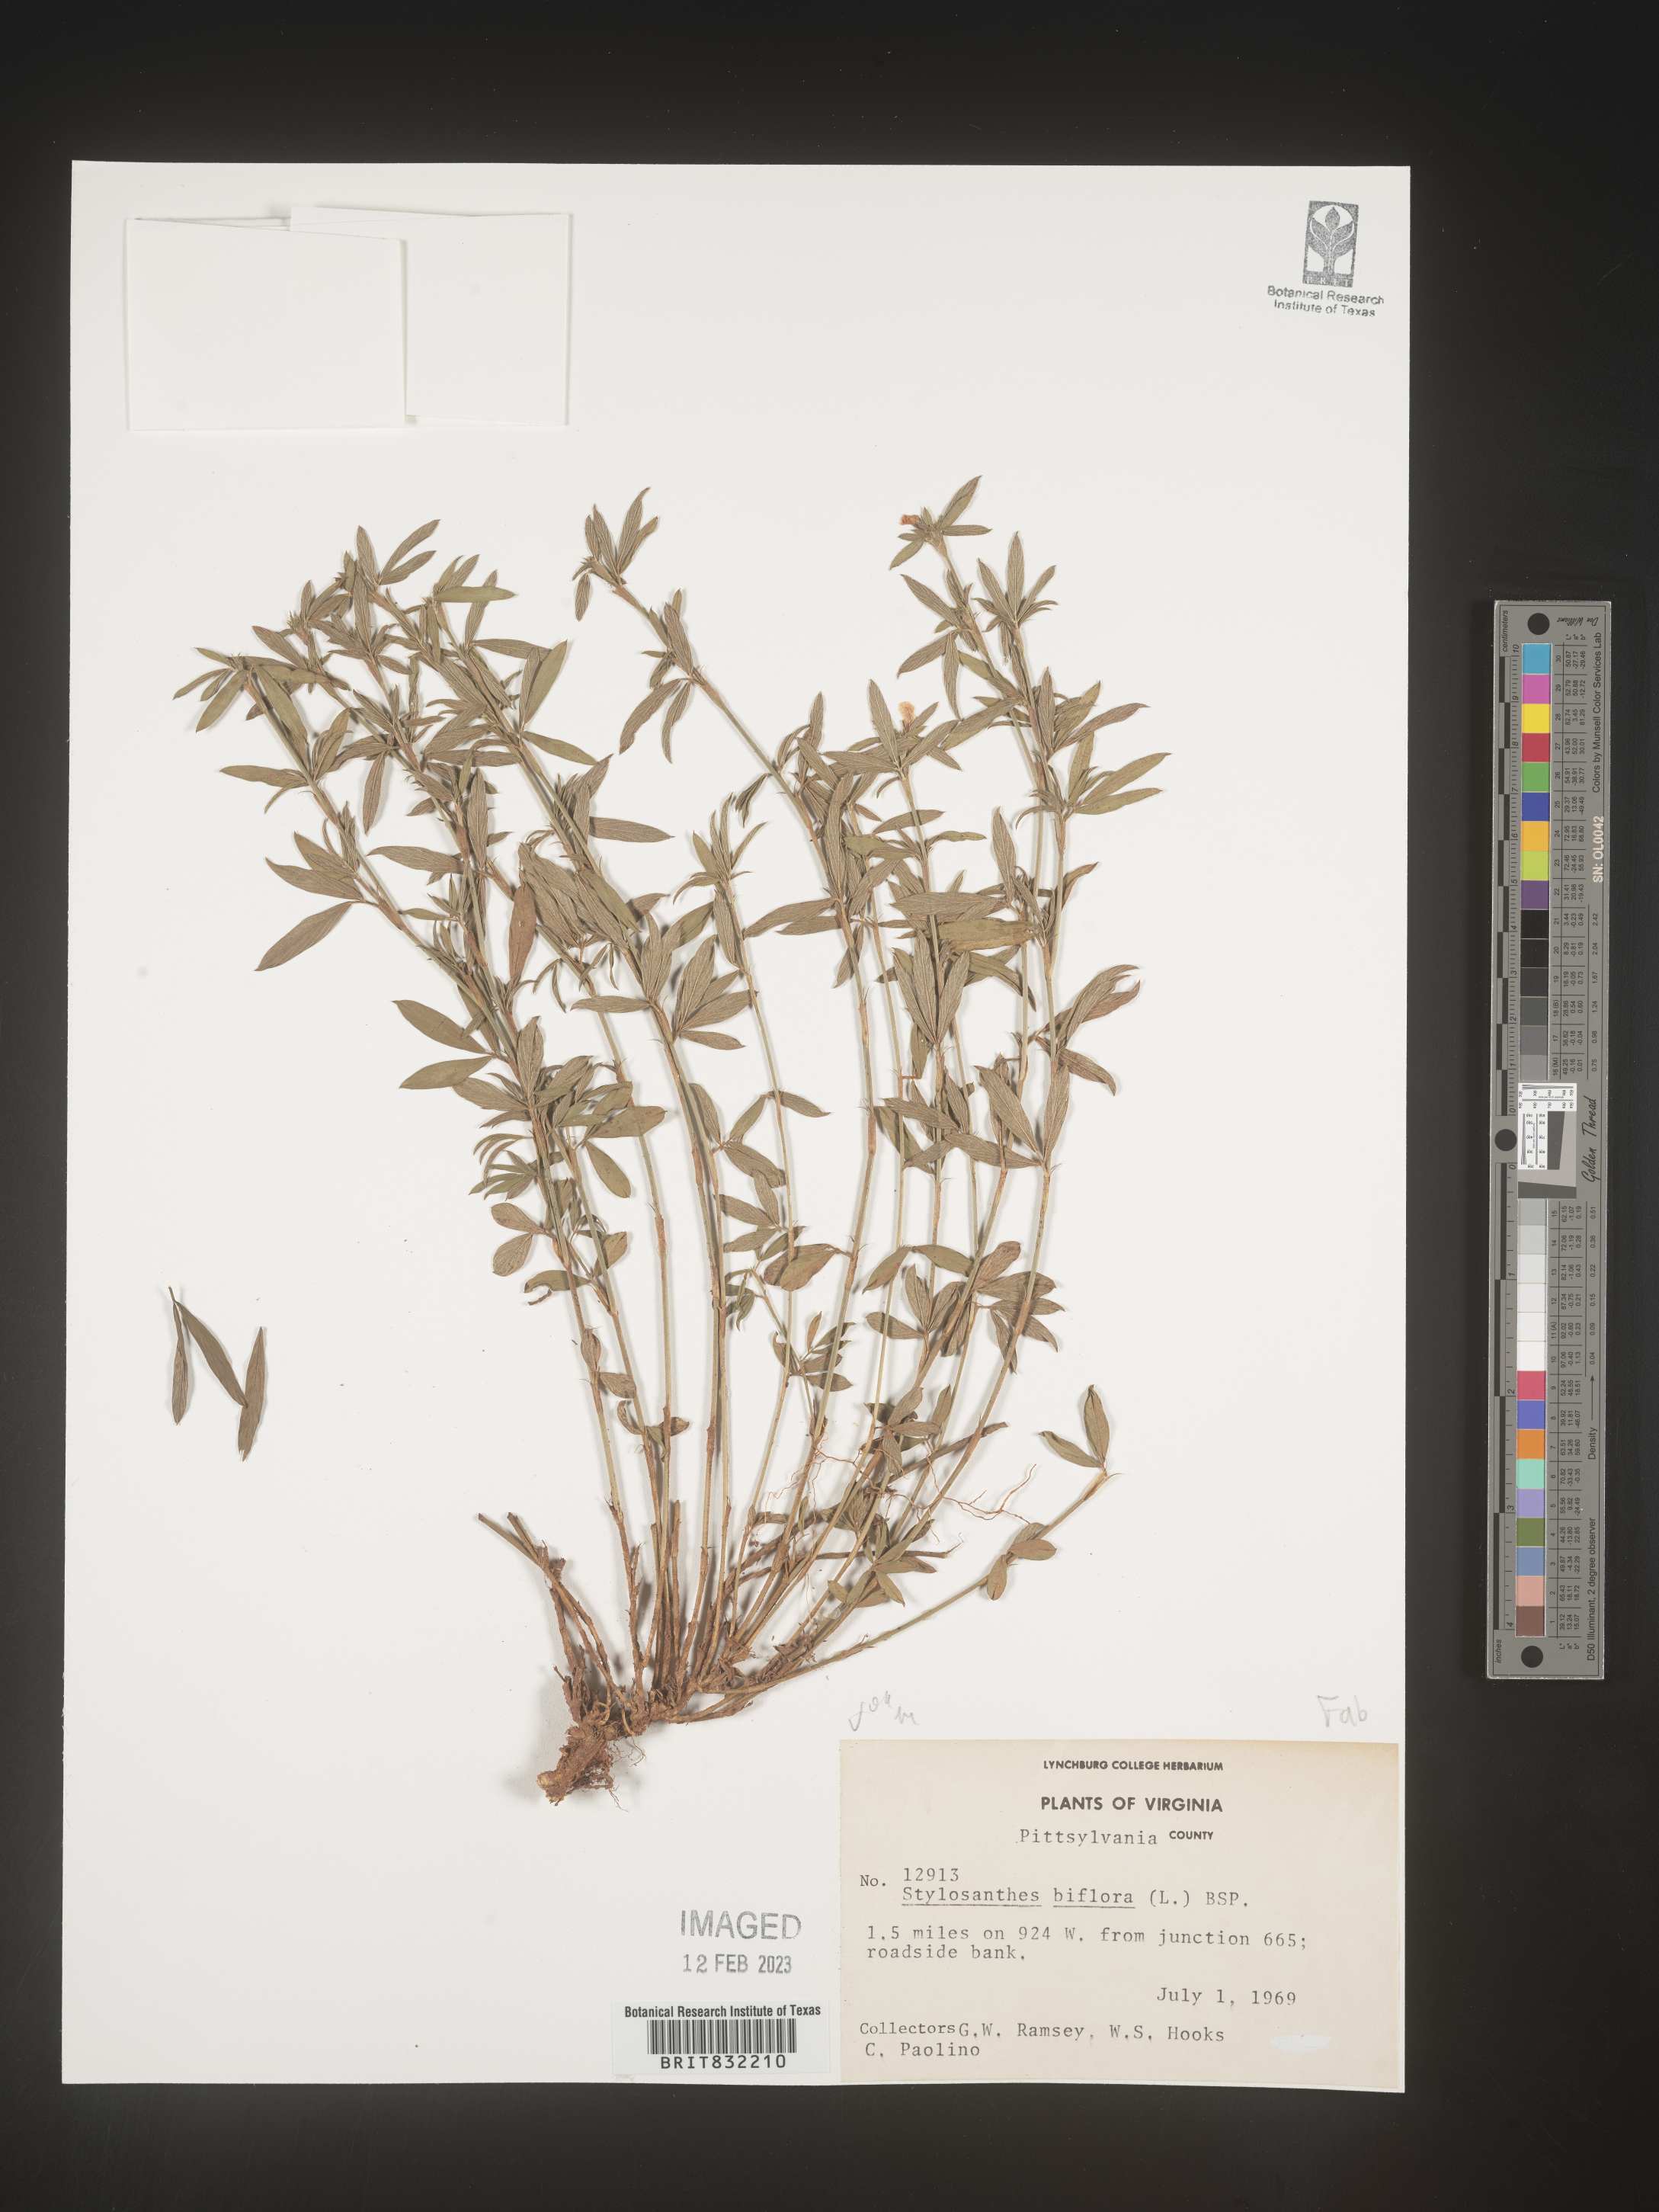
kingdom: Plantae
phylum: Tracheophyta
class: Magnoliopsida
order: Fabales
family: Fabaceae
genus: Stylosanthes
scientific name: Stylosanthes biflora
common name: Two-flower pencil-flower
